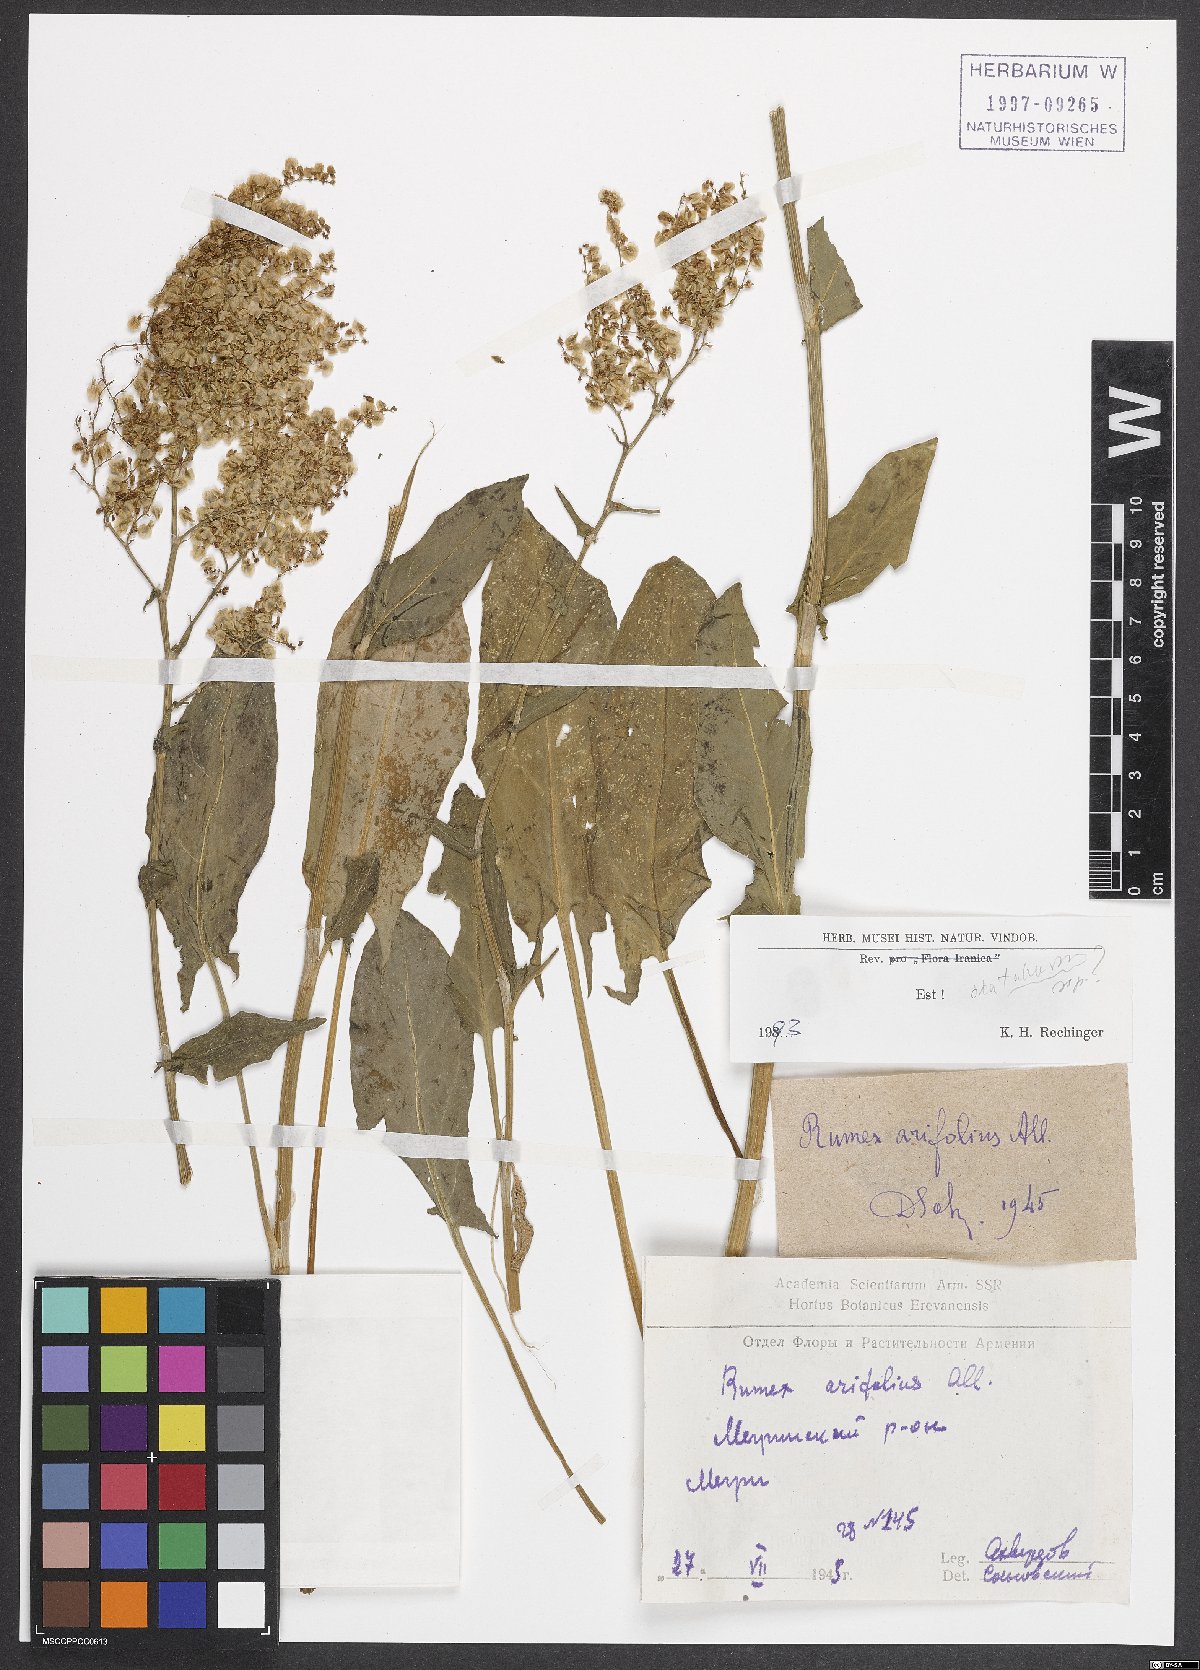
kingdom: Plantae
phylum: Tracheophyta
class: Magnoliopsida
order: Caryophyllales
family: Polygonaceae
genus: Rumex
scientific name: Rumex arifolius
